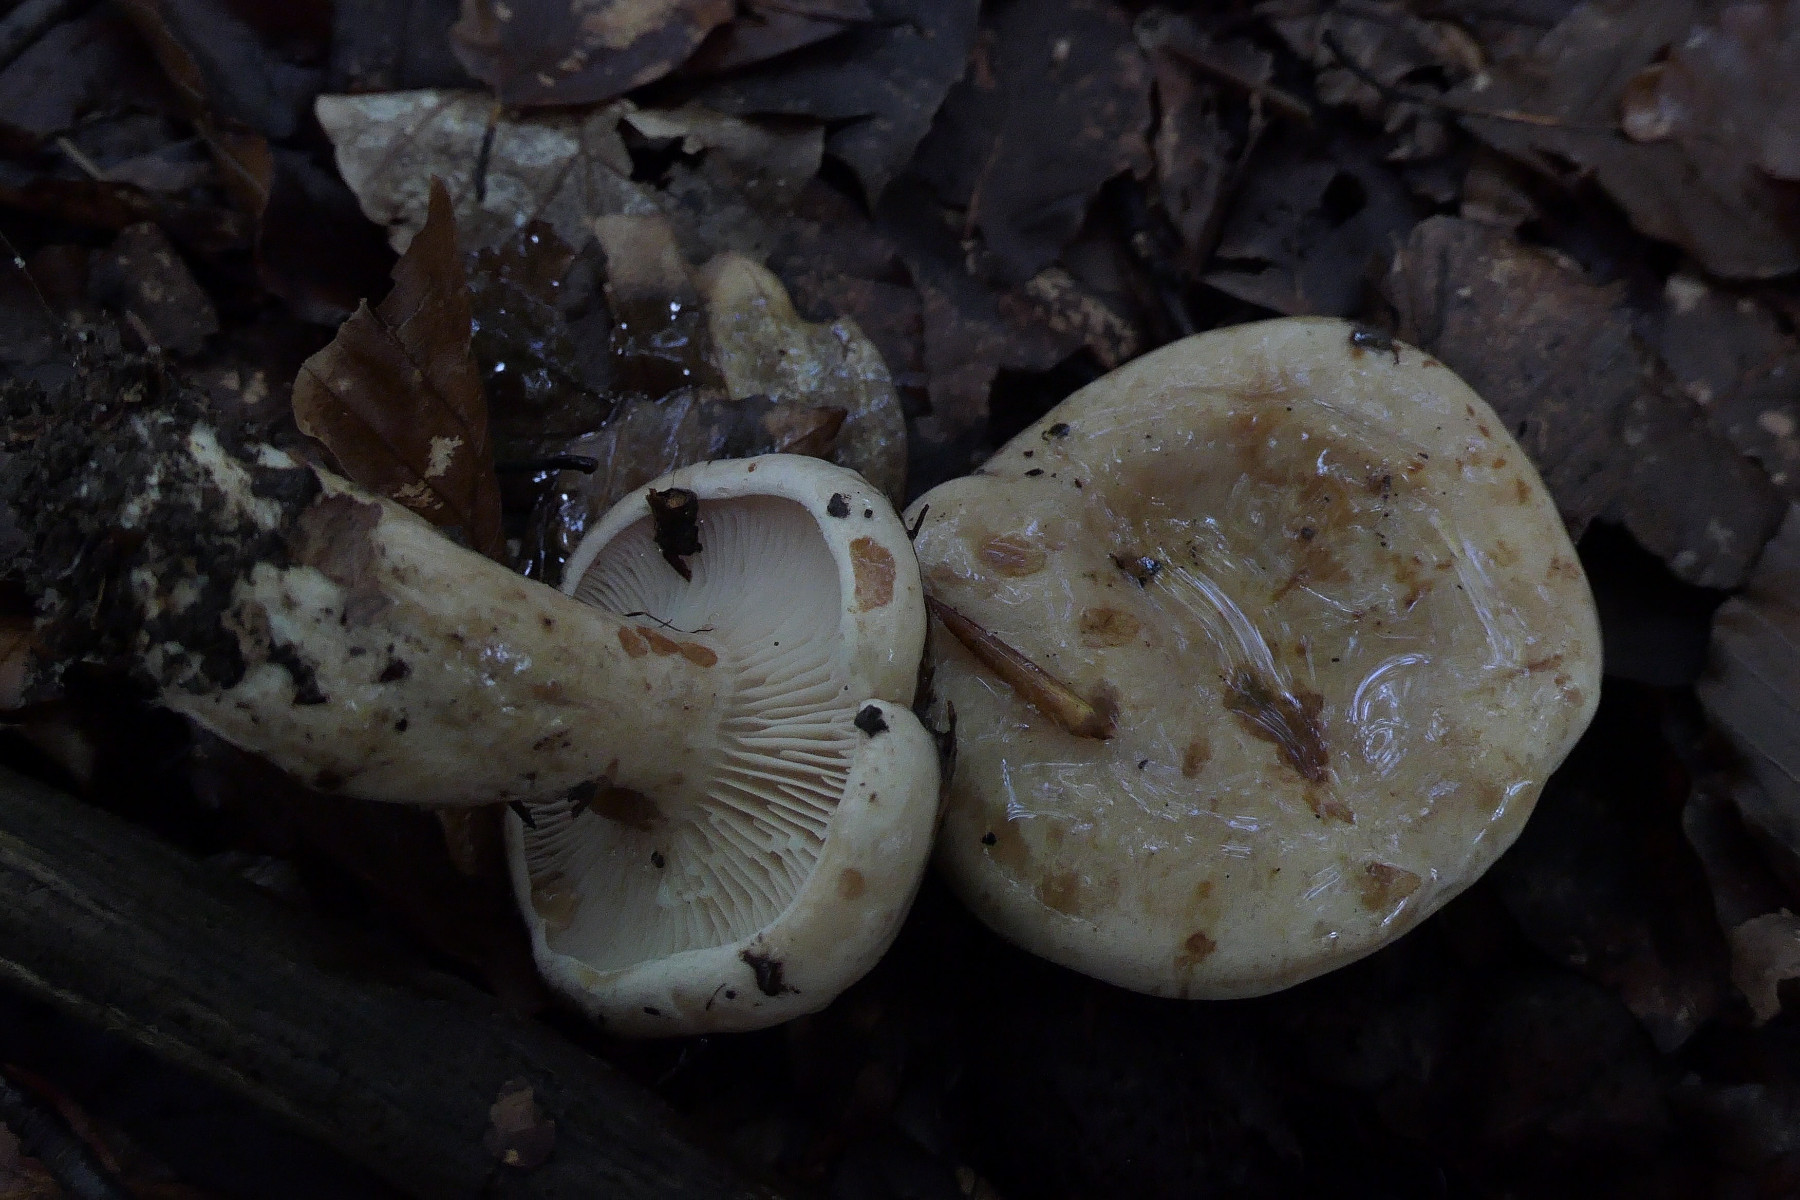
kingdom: Fungi
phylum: Basidiomycota
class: Agaricomycetes
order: Russulales
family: Russulaceae
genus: Lactarius
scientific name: Lactarius pallidus
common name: bleg mælkehat
